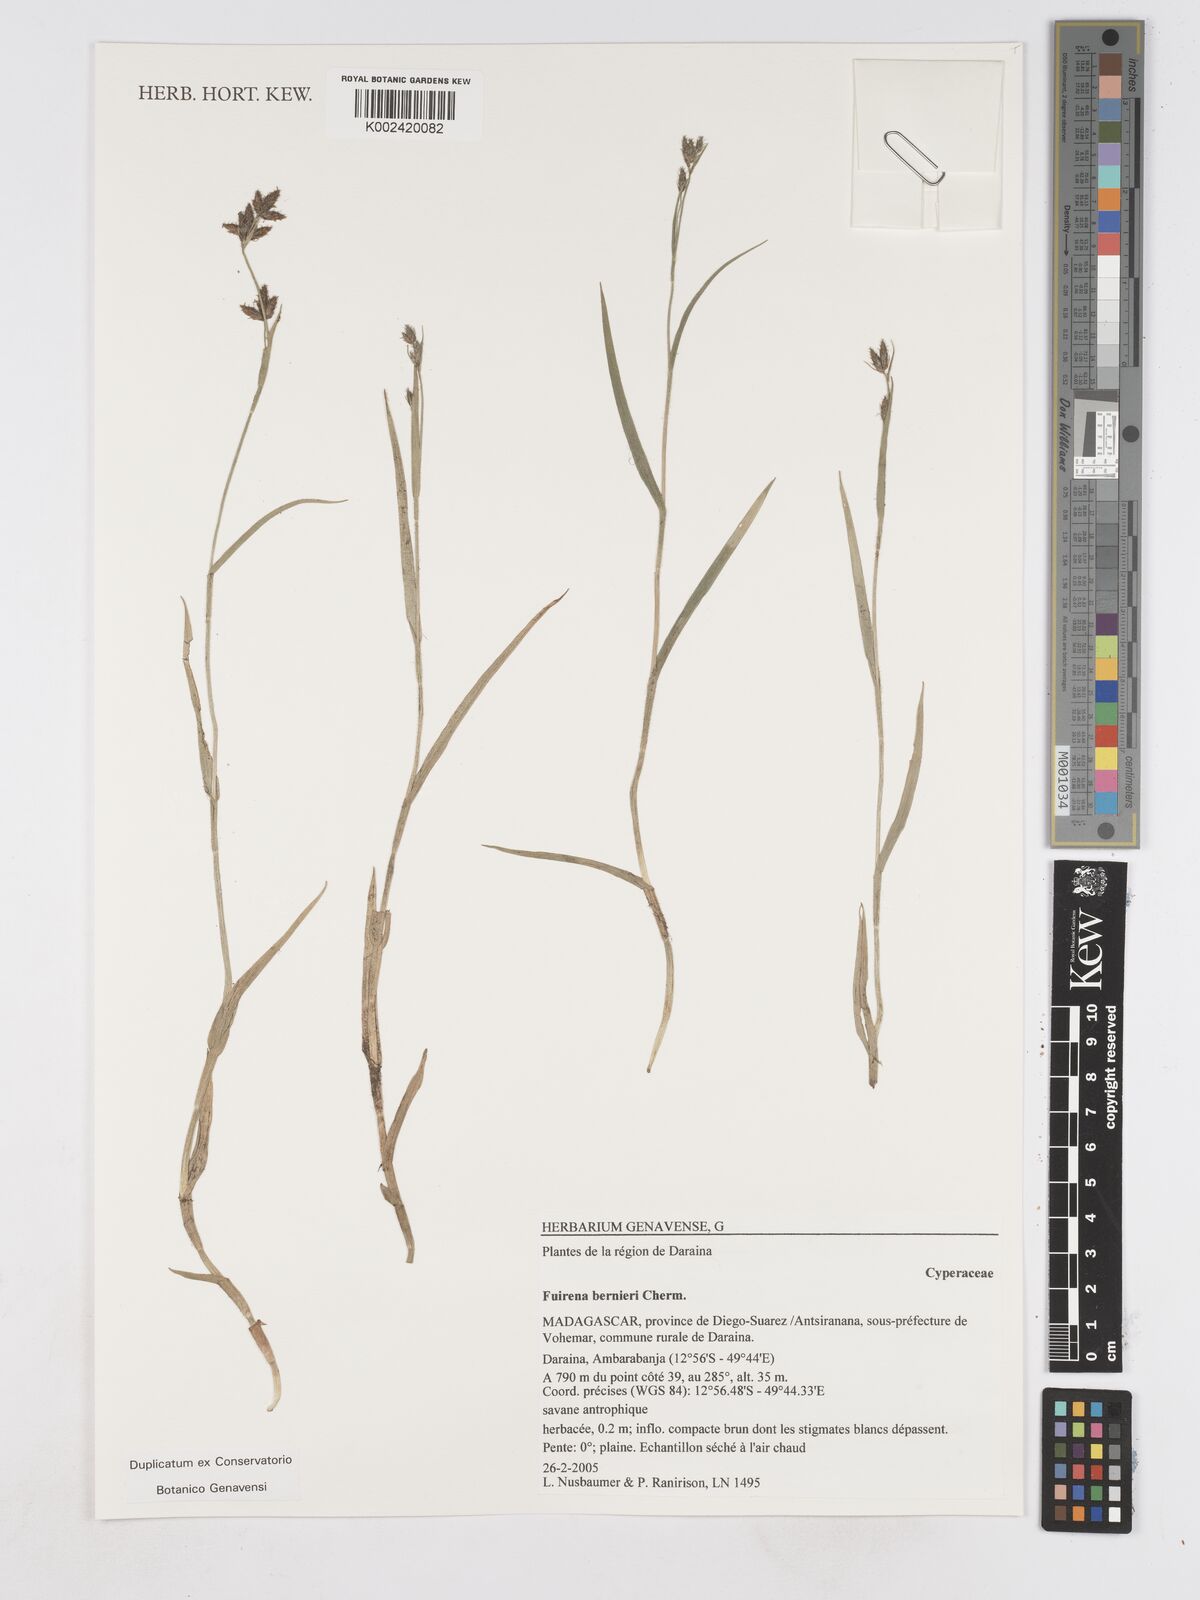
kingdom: Plantae
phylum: Tracheophyta
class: Liliopsida
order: Poales
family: Cyperaceae
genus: Fuirena
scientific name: Fuirena bernieri
